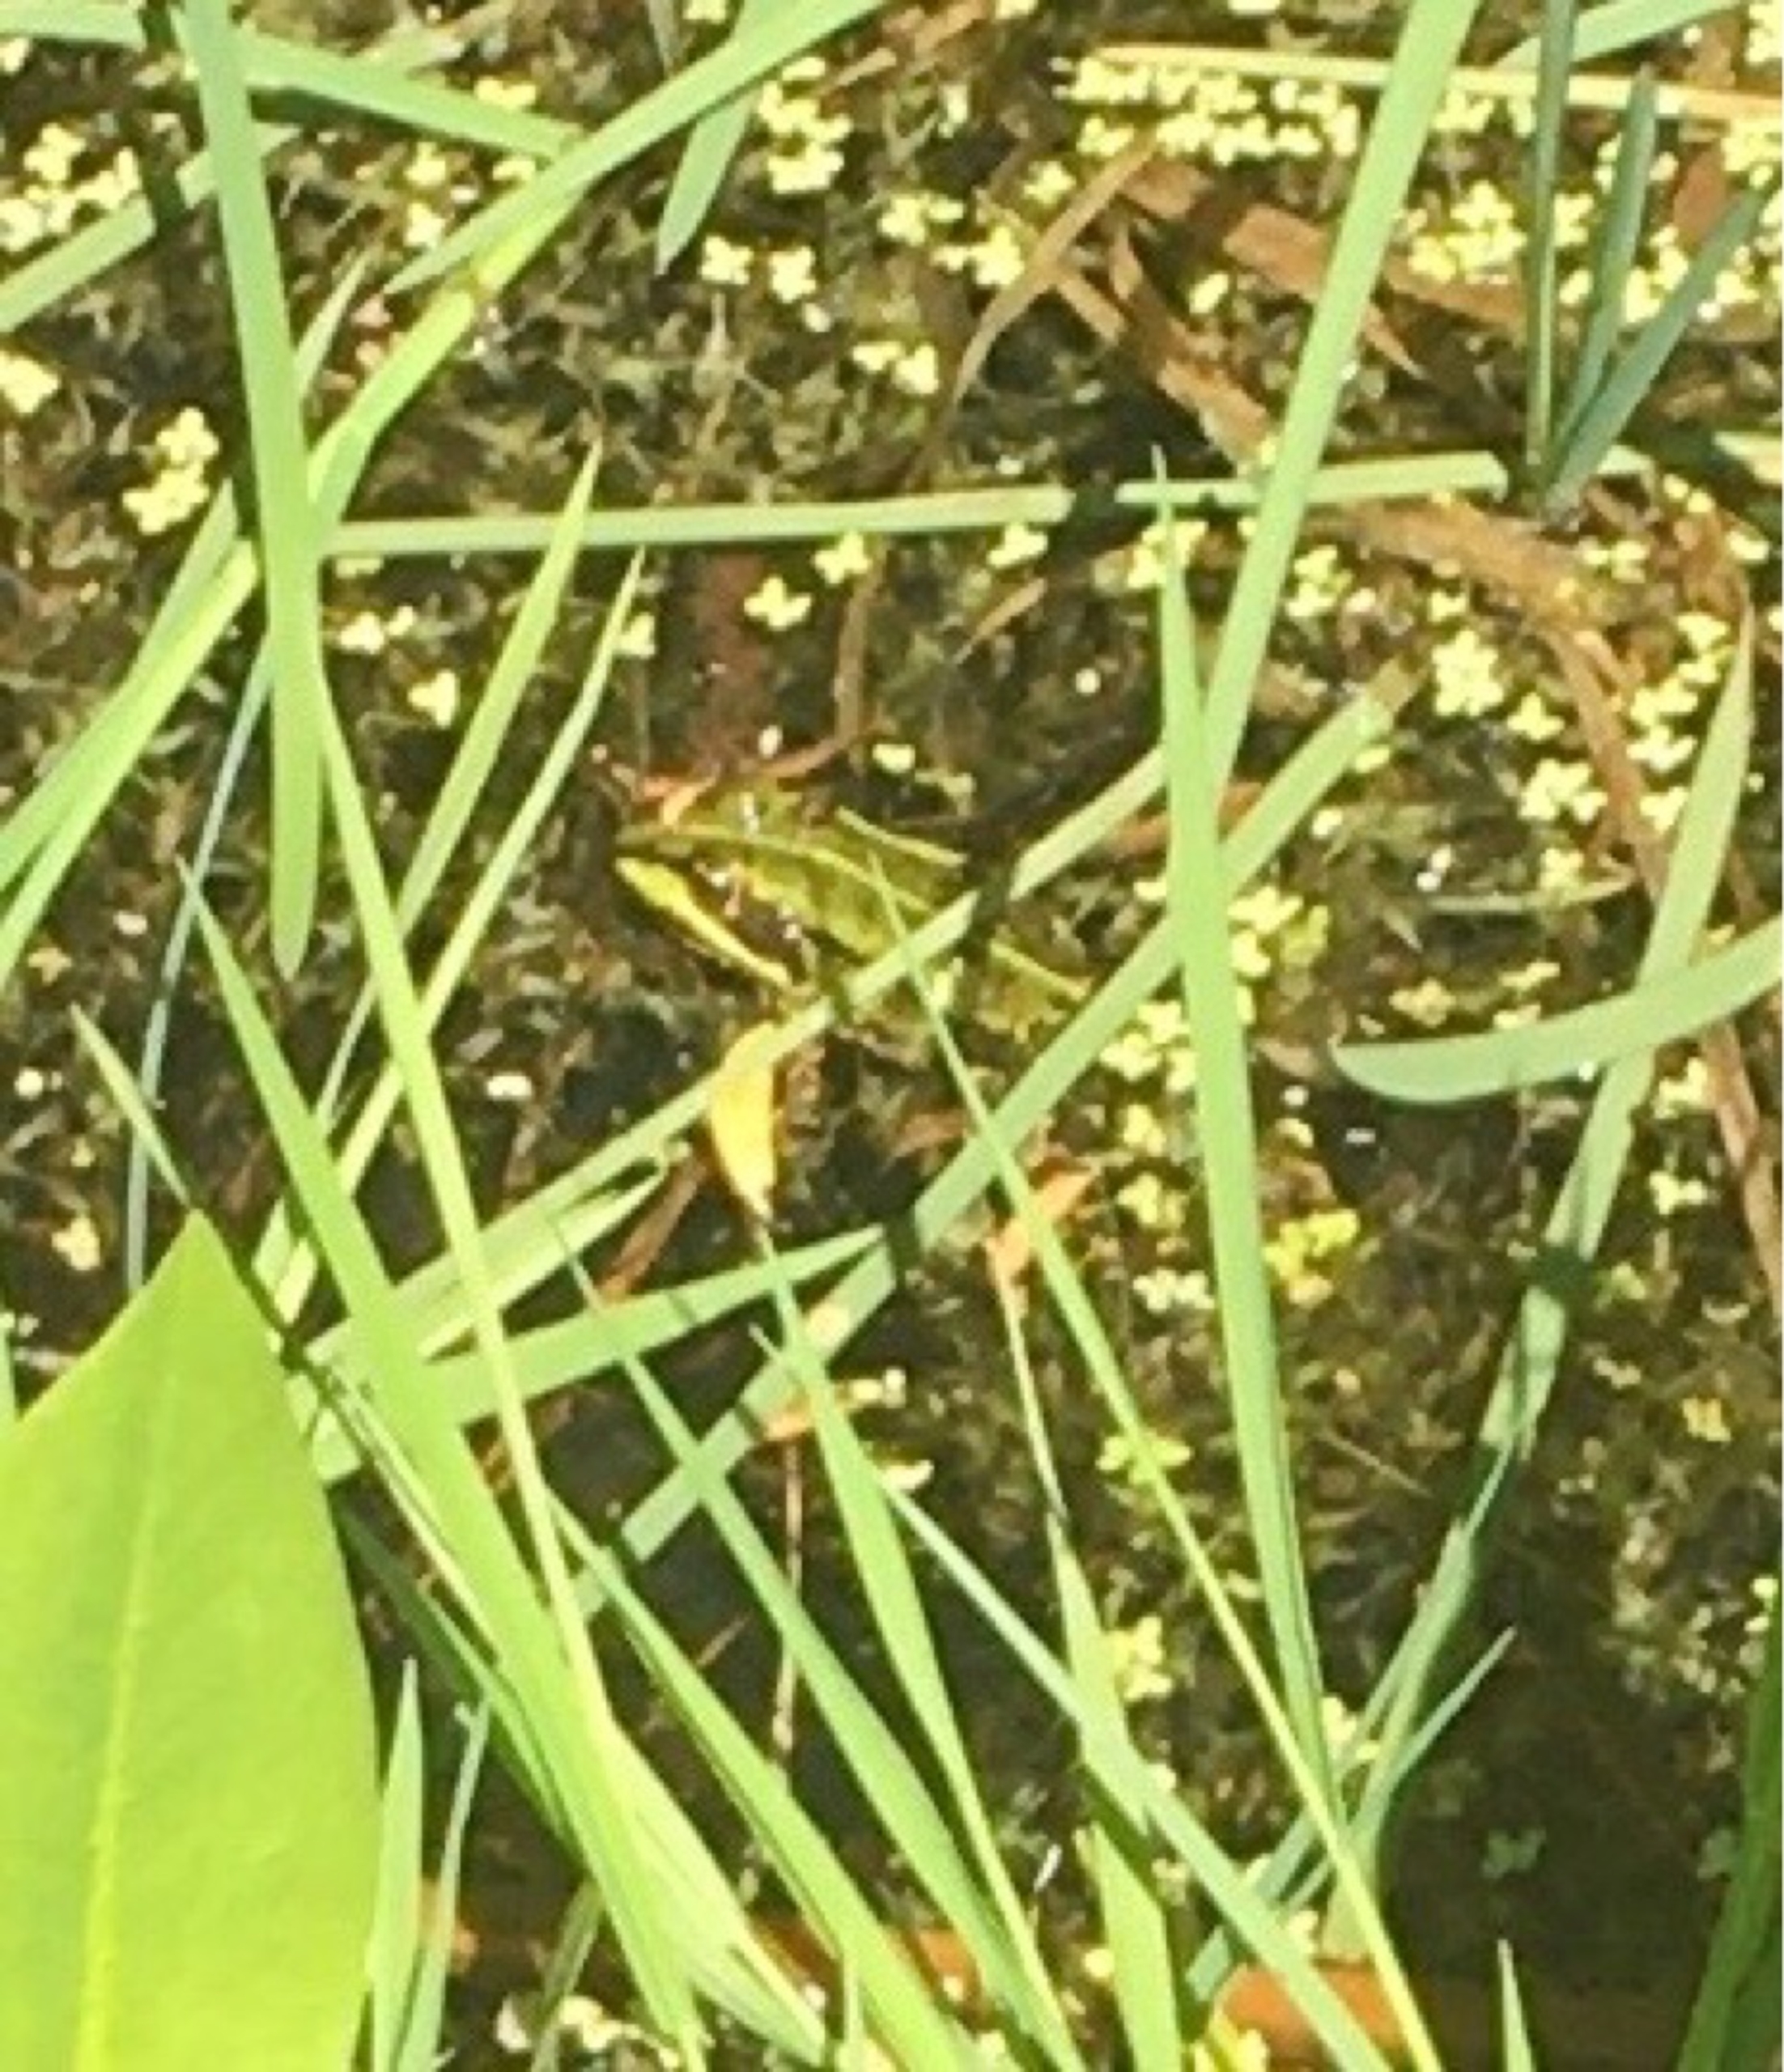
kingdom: Animalia
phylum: Chordata
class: Amphibia
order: Anura
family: Ranidae
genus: Pelophylax
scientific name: Pelophylax lessonae
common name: Grøn frø
